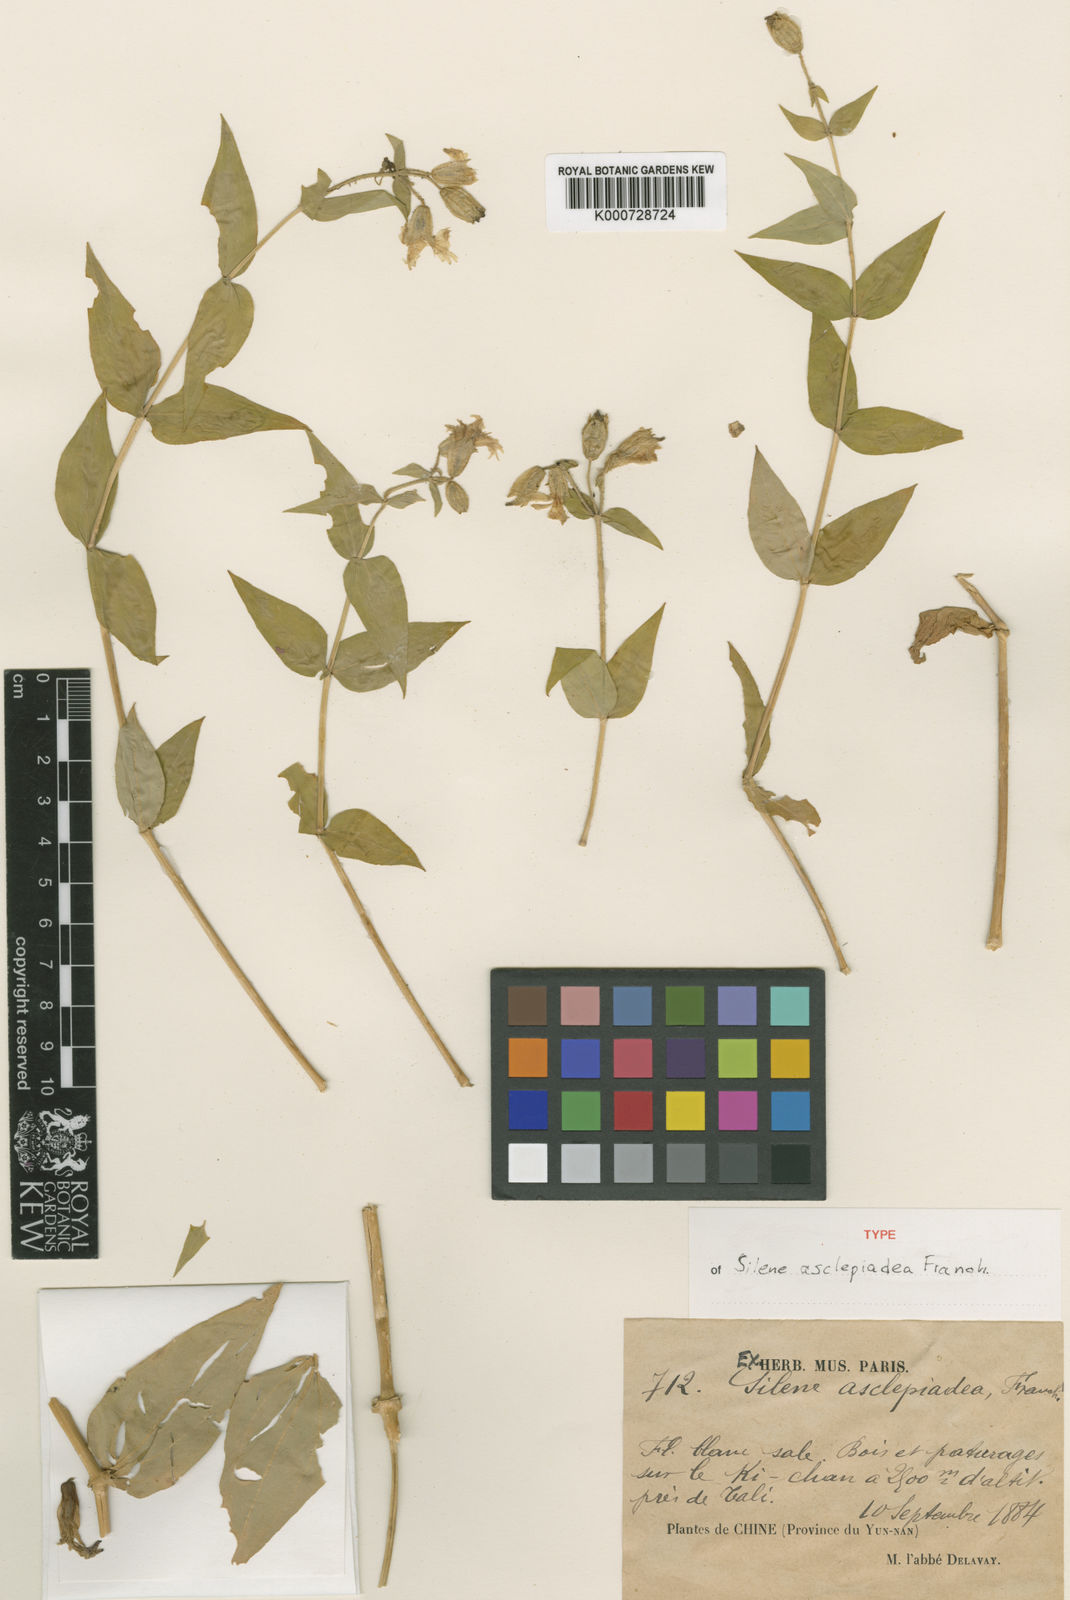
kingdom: Plantae
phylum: Tracheophyta
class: Magnoliopsida
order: Caryophyllales
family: Caryophyllaceae
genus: Silene
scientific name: Silene asclepiadea
